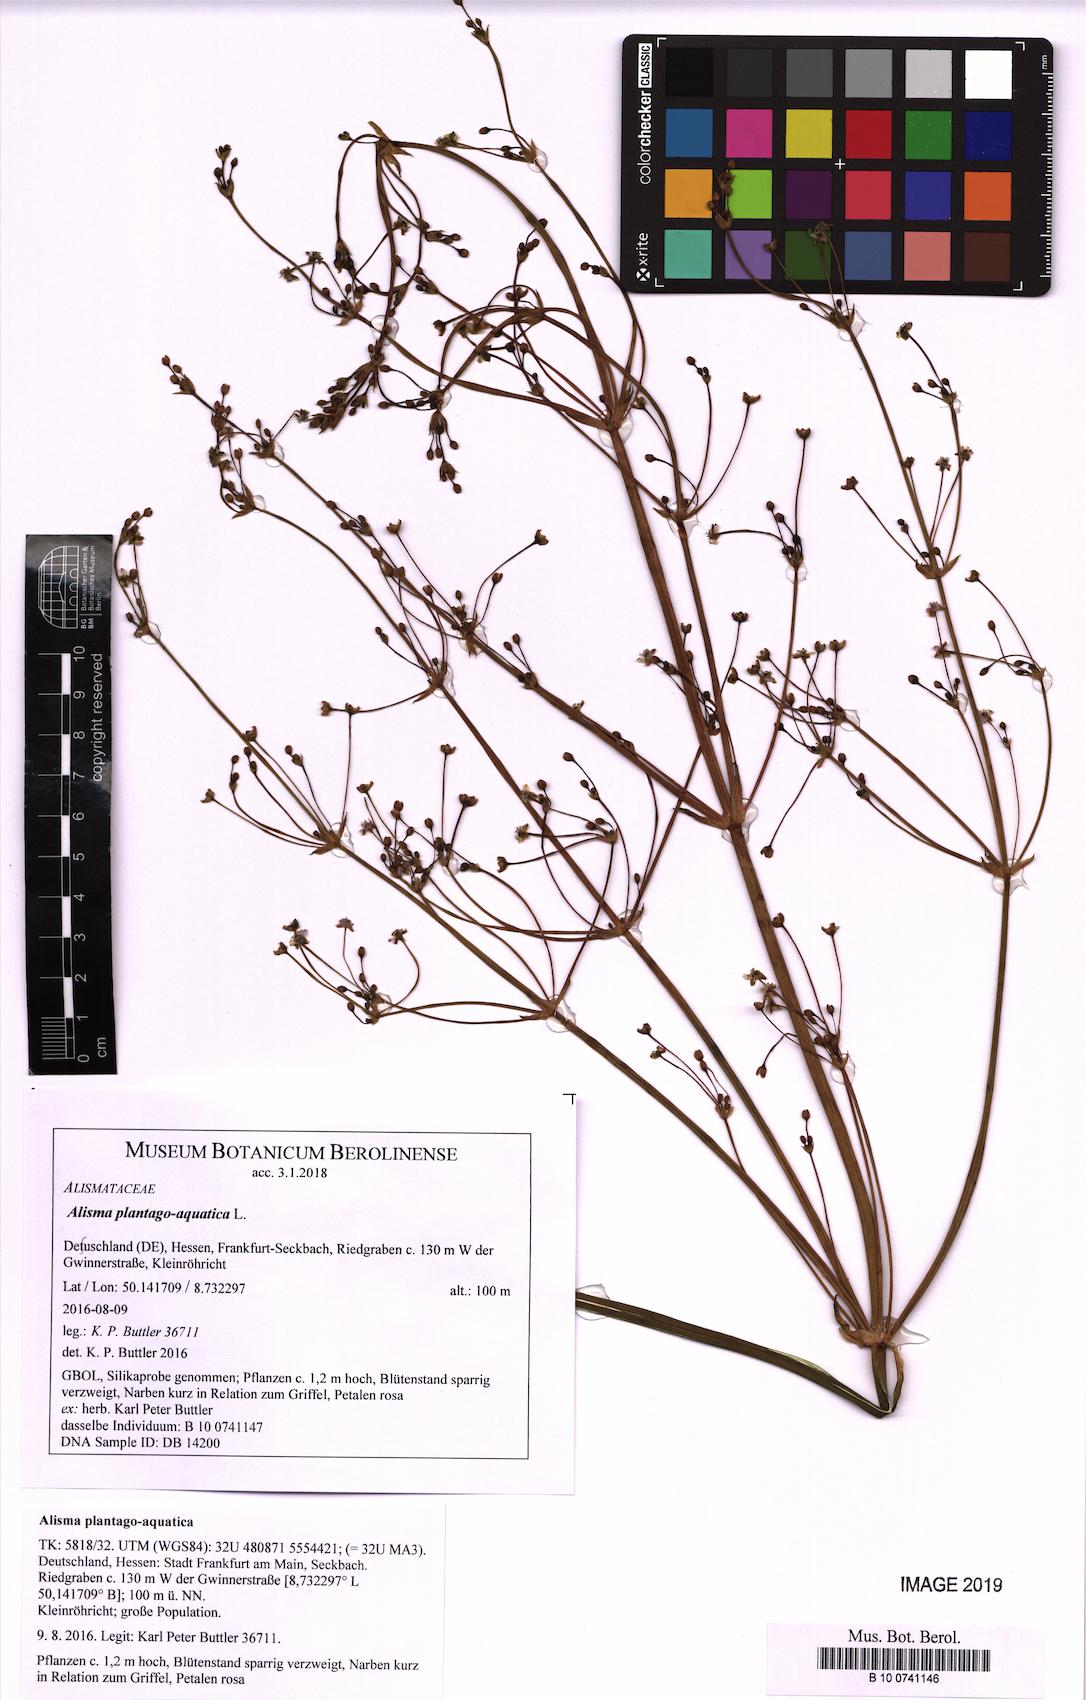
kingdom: Plantae
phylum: Tracheophyta
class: Liliopsida
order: Alismatales
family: Alismataceae
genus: Alisma
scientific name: Alisma plantago-aquatica
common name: Water-plantain
